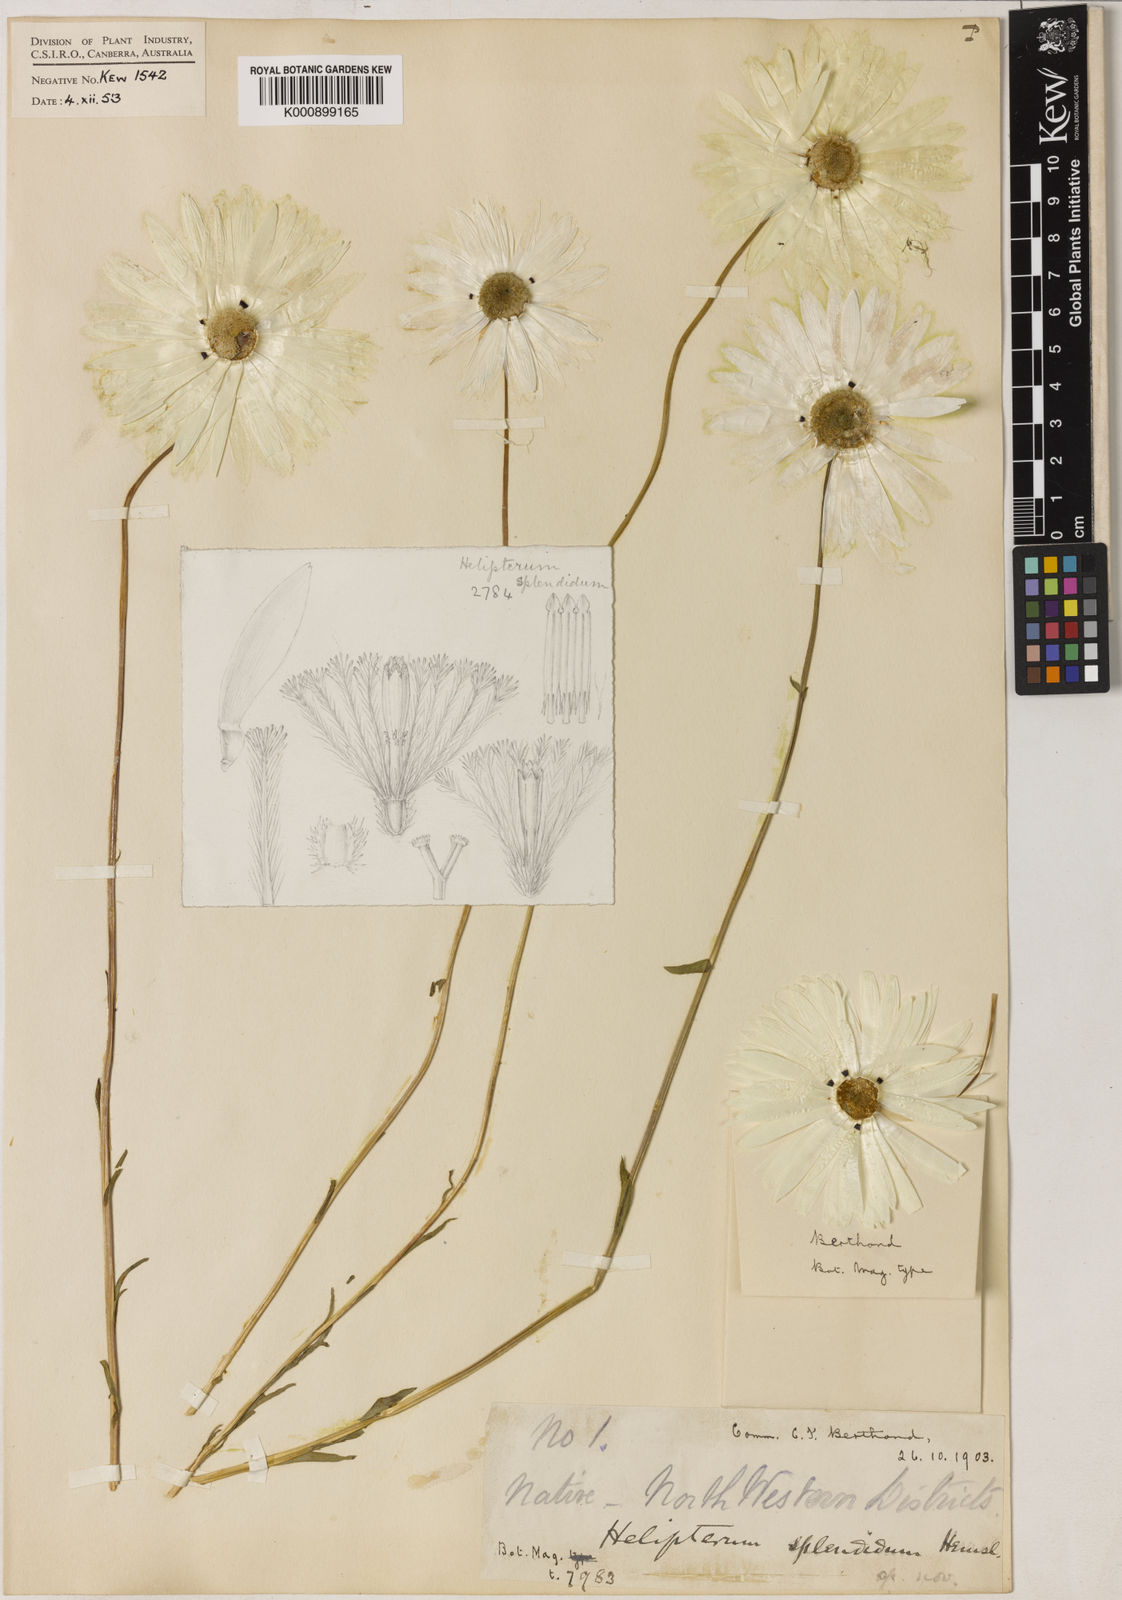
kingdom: Plantae
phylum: Tracheophyta
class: Magnoliopsida
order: Asterales
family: Asteraceae
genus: Rhodanthe
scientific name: Rhodanthe chlorocephala
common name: Rosy sunray
